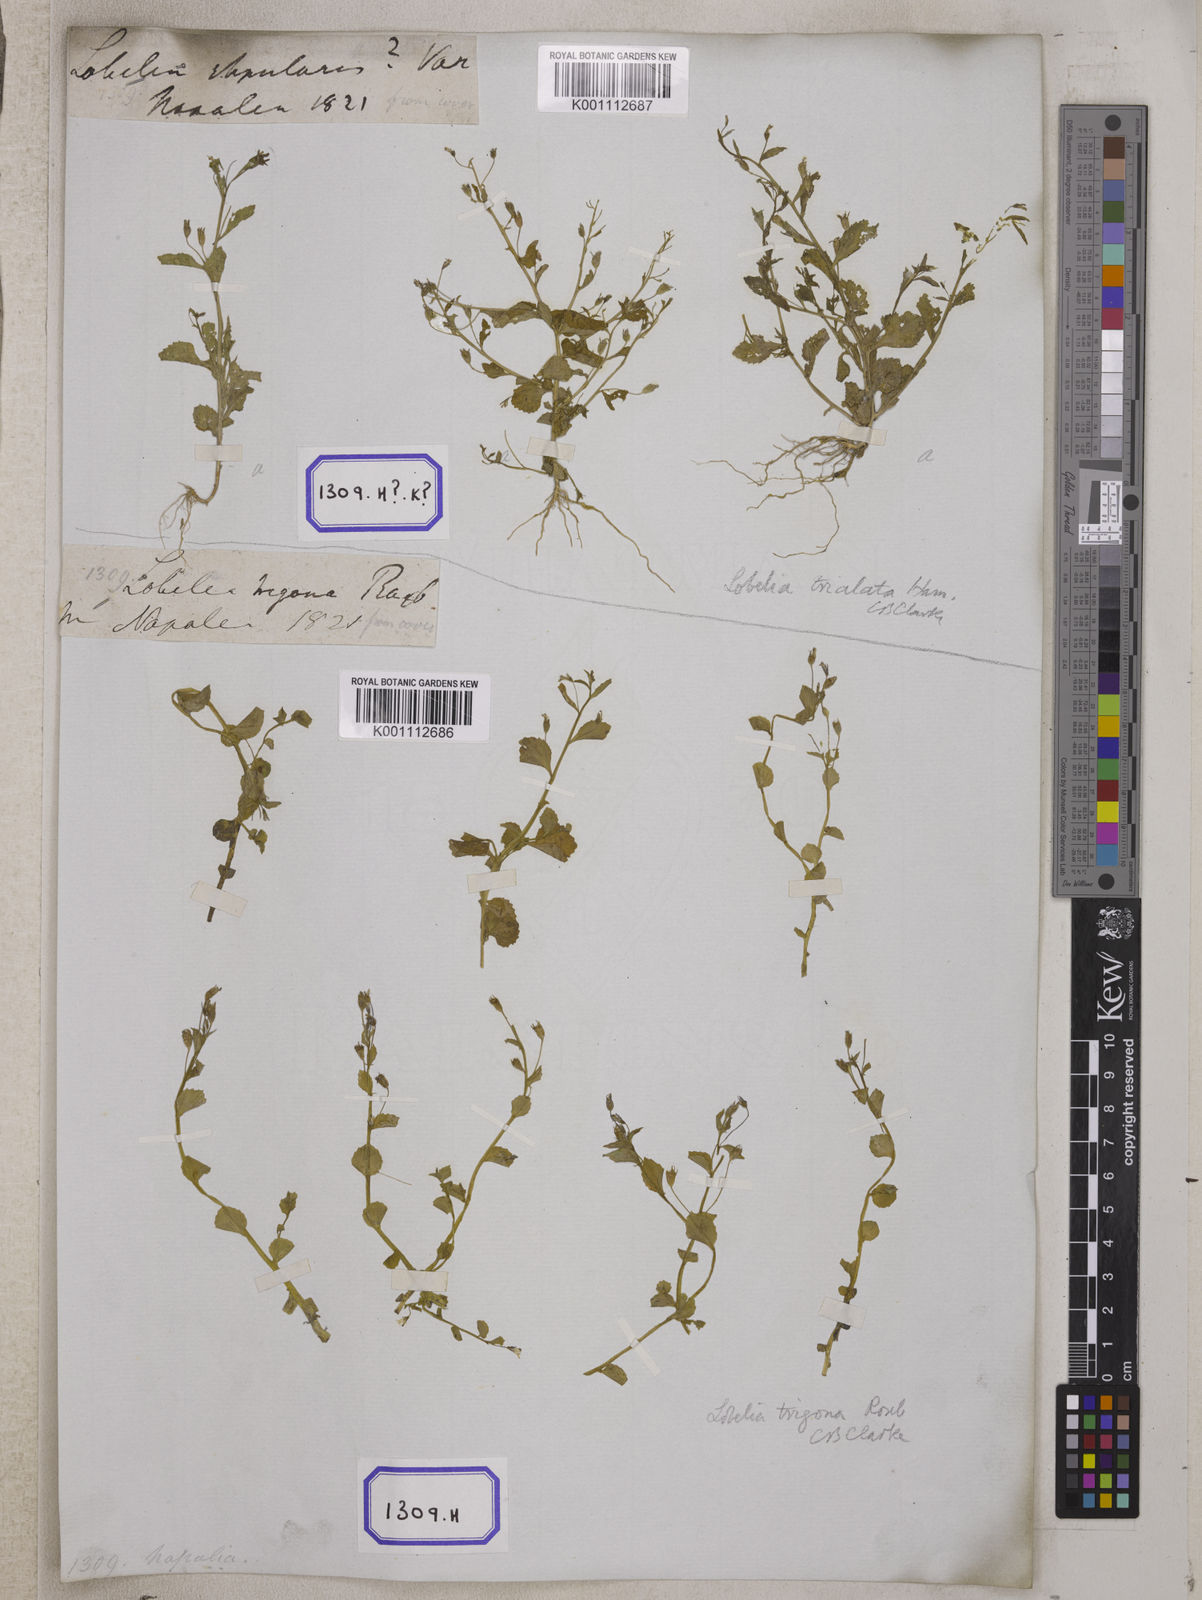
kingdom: Plantae
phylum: Tracheophyta
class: Magnoliopsida
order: Asterales
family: Campanulaceae
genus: Lobelia
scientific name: Lobelia alsinoides
